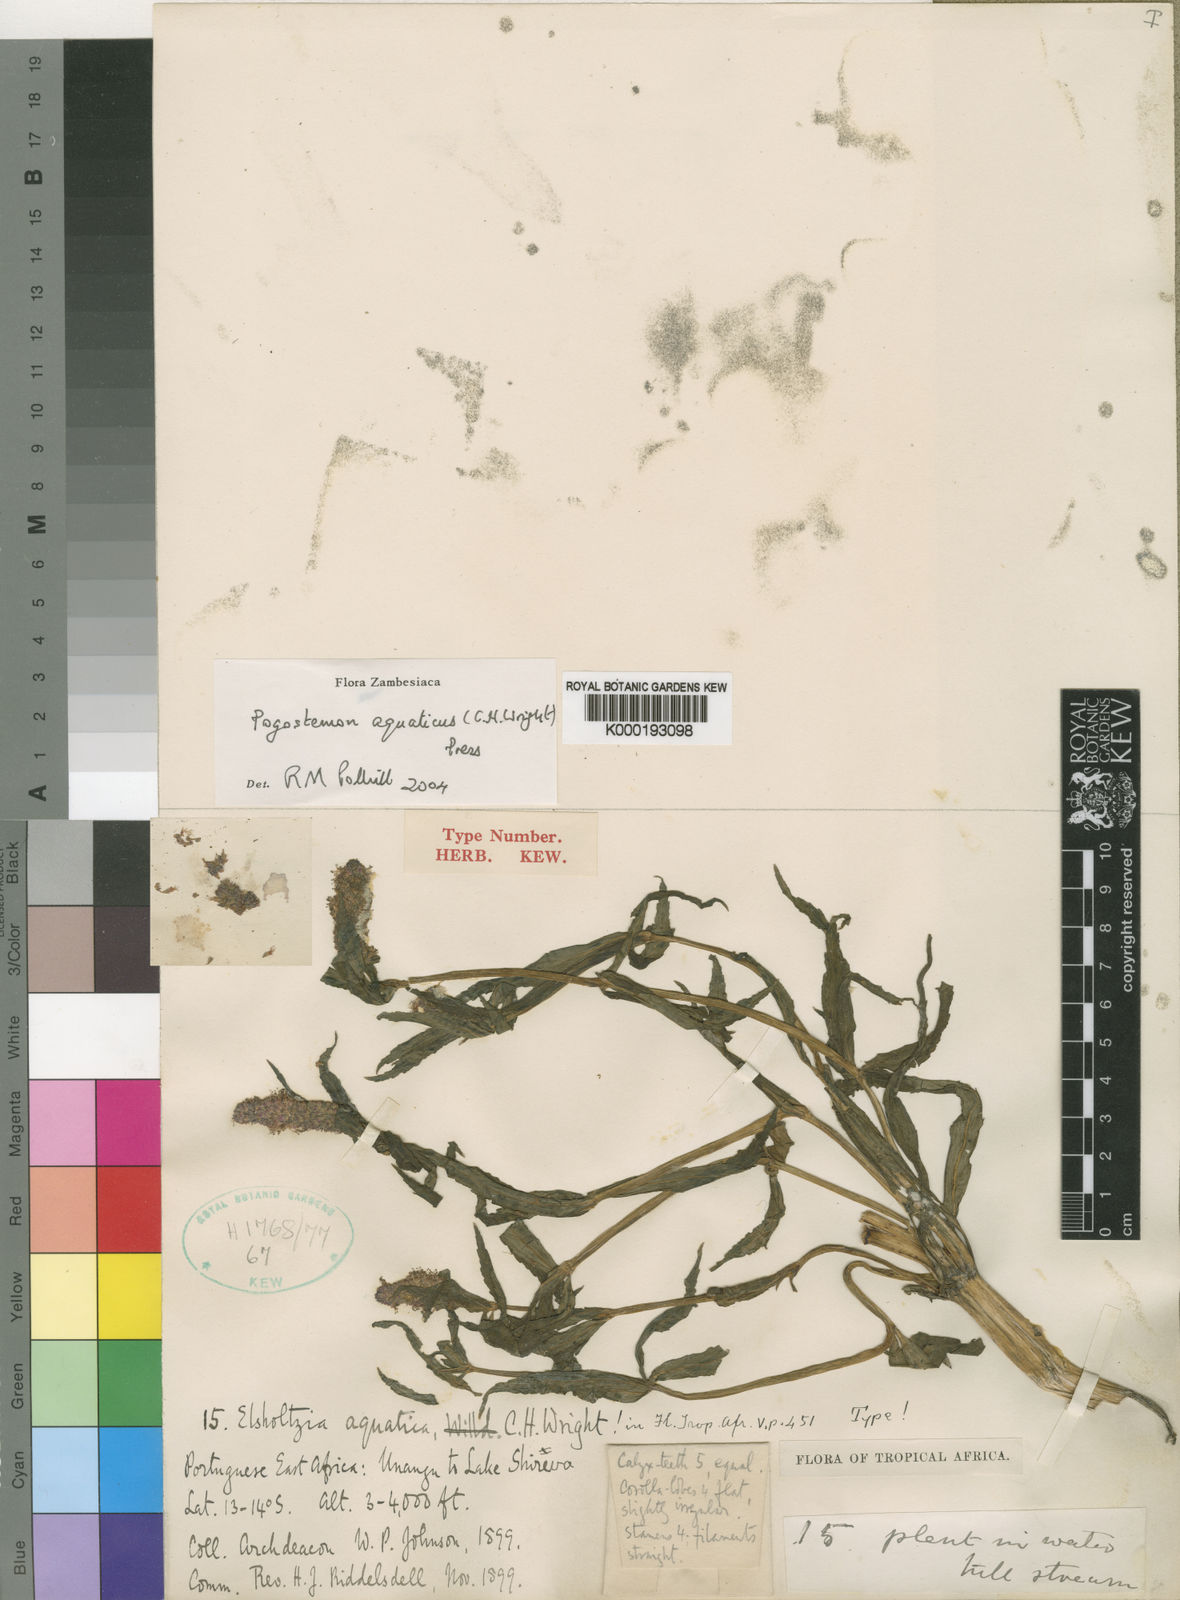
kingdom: Plantae
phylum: Tracheophyta
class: Magnoliopsida
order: Lamiales
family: Lamiaceae
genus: Pogostemon
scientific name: Pogostemon aquaticus
